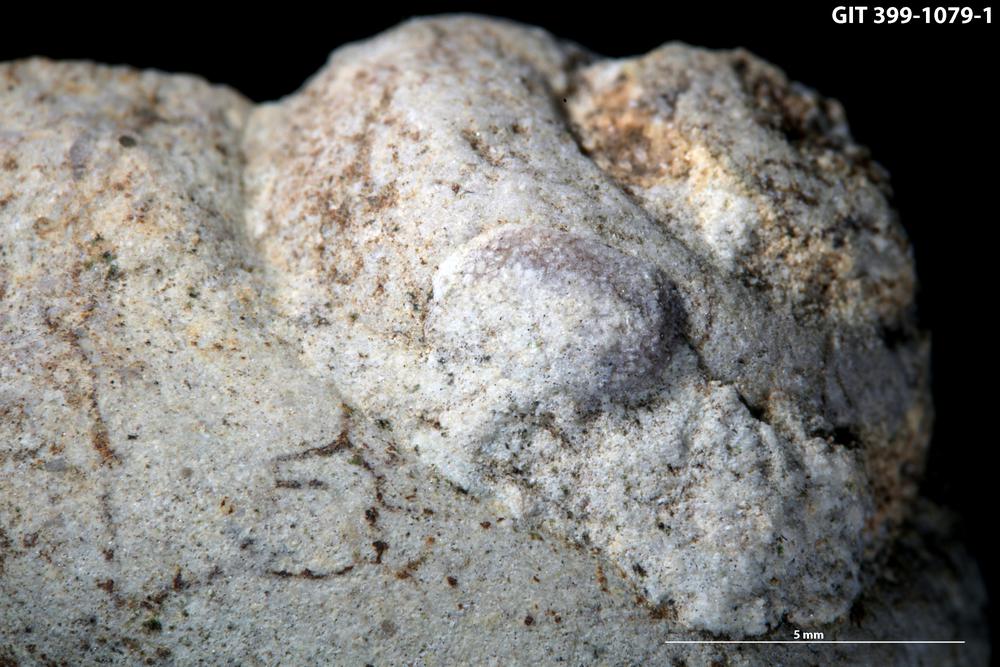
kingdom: Animalia
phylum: Bryozoa
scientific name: Bryozoa
